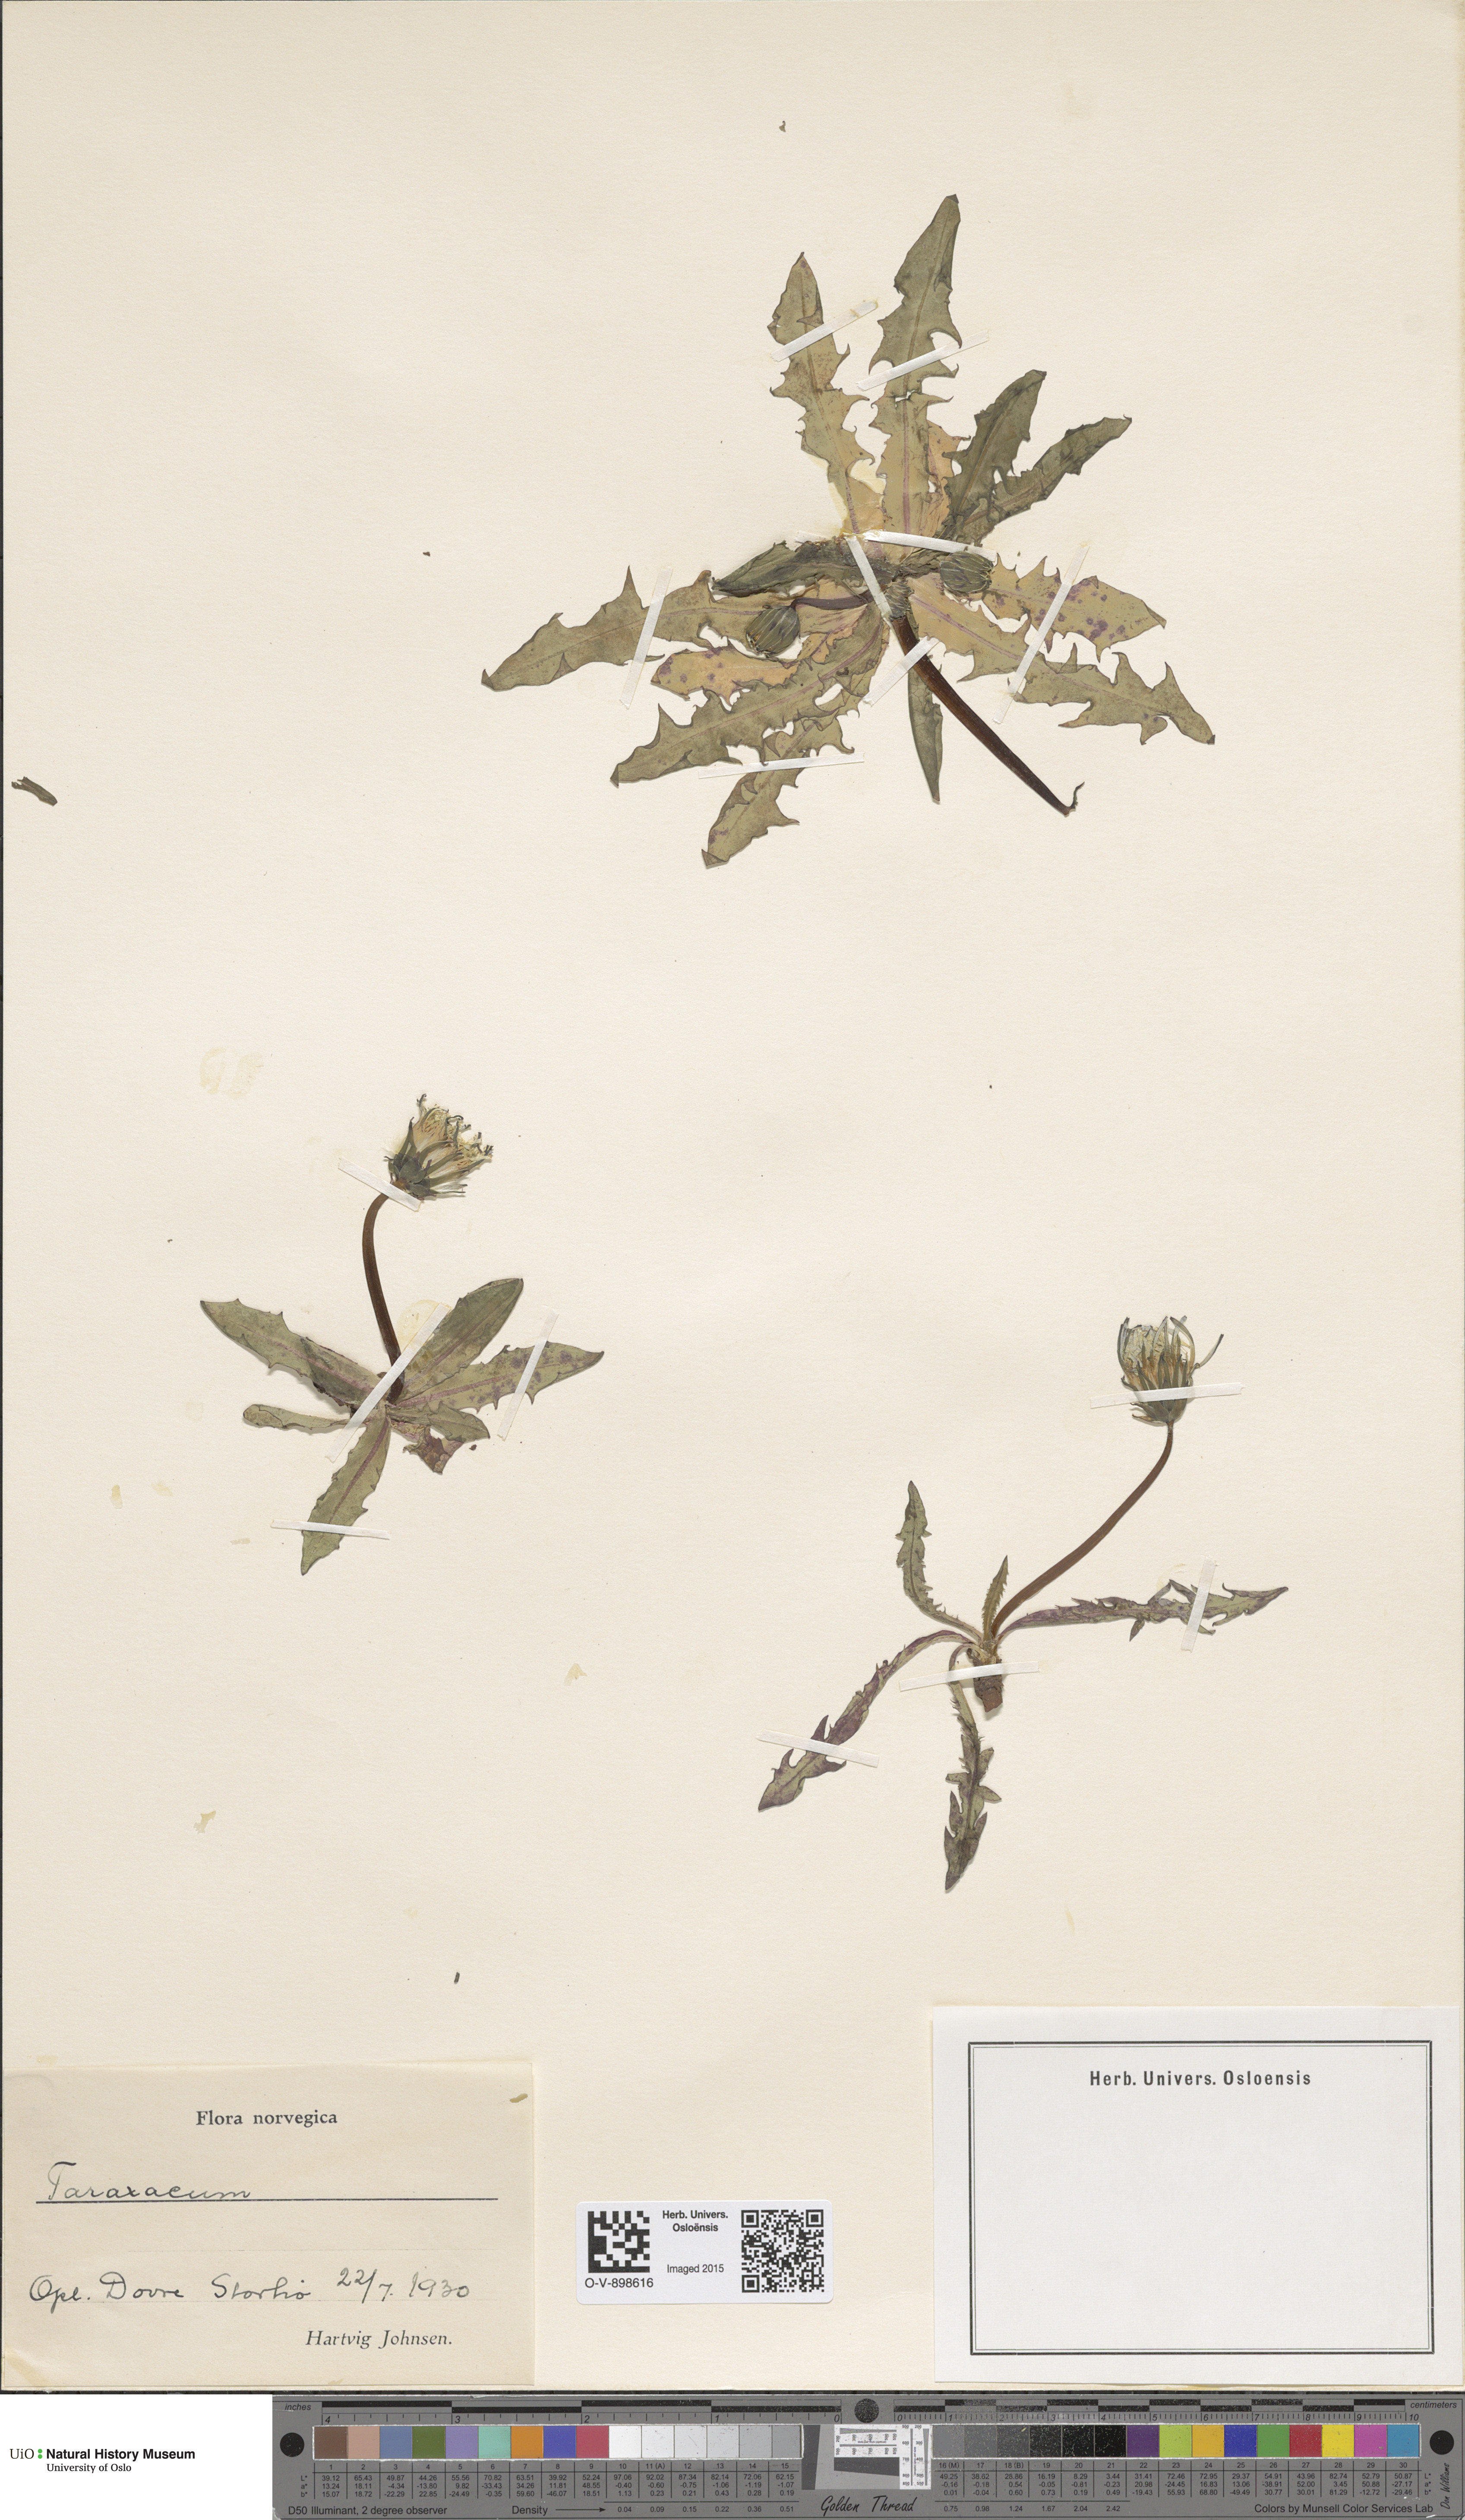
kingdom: Plantae
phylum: Tracheophyta
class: Magnoliopsida
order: Asterales
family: Asteraceae
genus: Taraxacum
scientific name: Taraxacum
